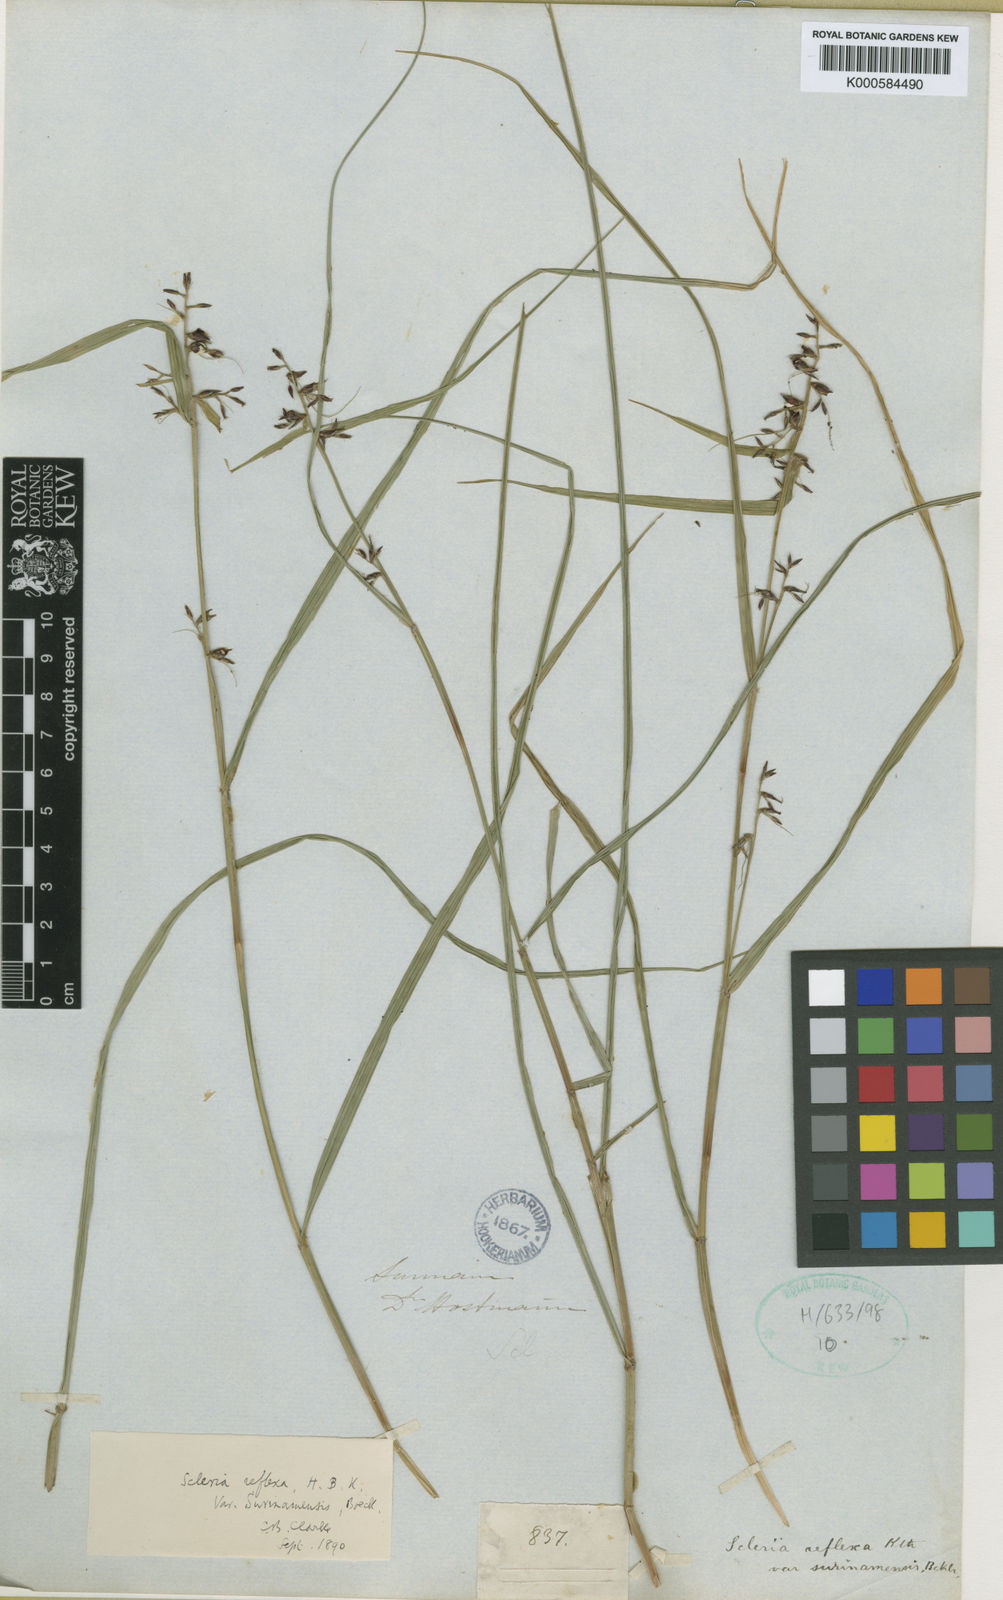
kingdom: Plantae
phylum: Tracheophyta
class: Liliopsida
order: Poales
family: Cyperaceae
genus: Scleria
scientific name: Scleria scabra
